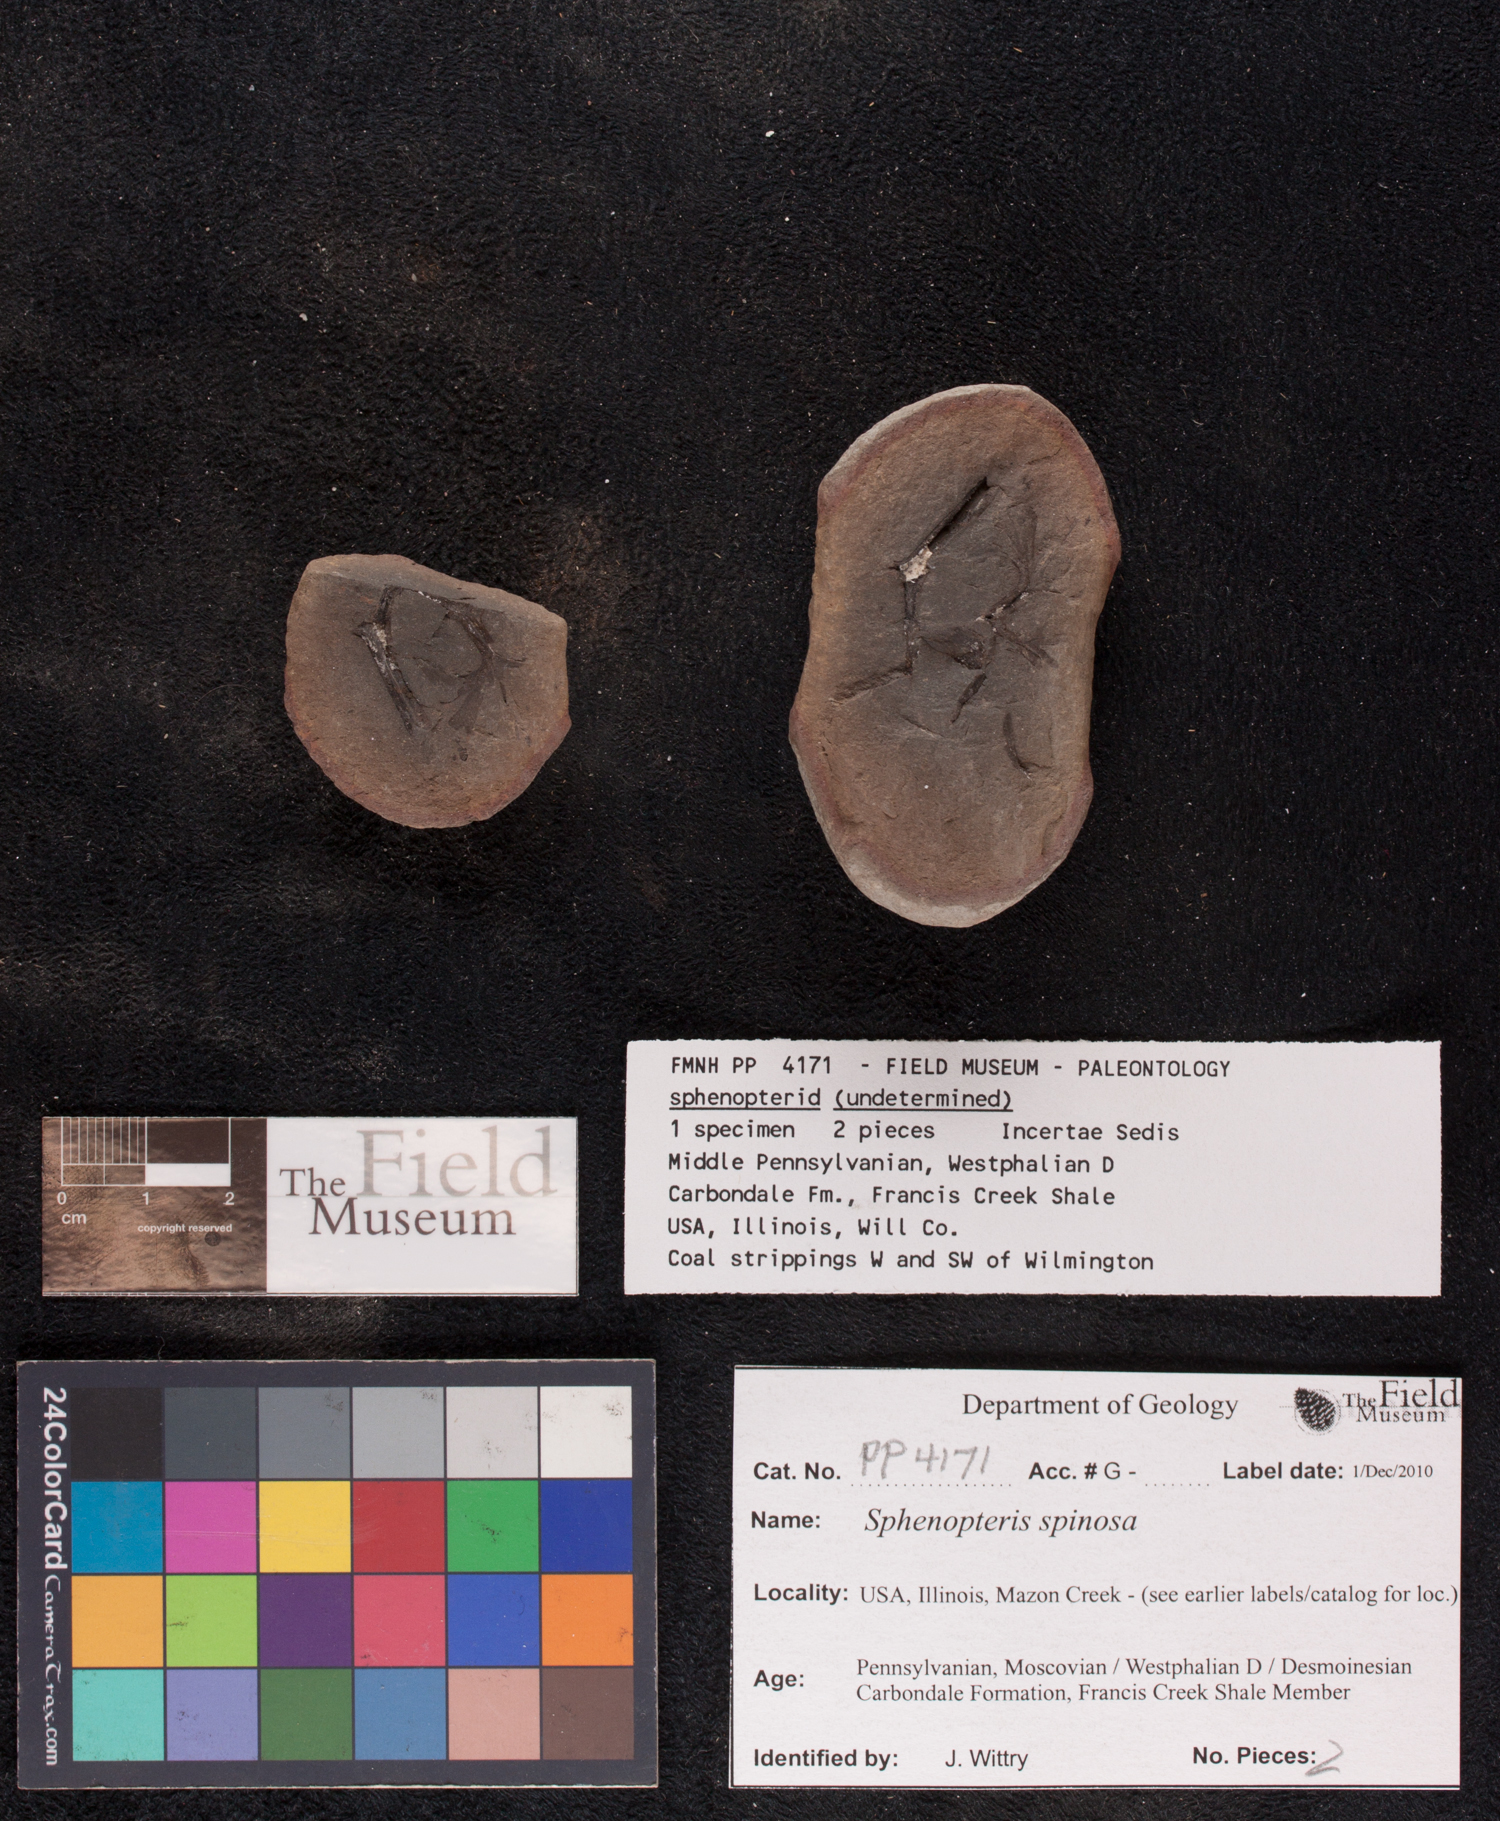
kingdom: Plantae
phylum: Tracheophyta
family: Lyginopteridaceae
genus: Sphenopteris
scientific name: Sphenopteris
